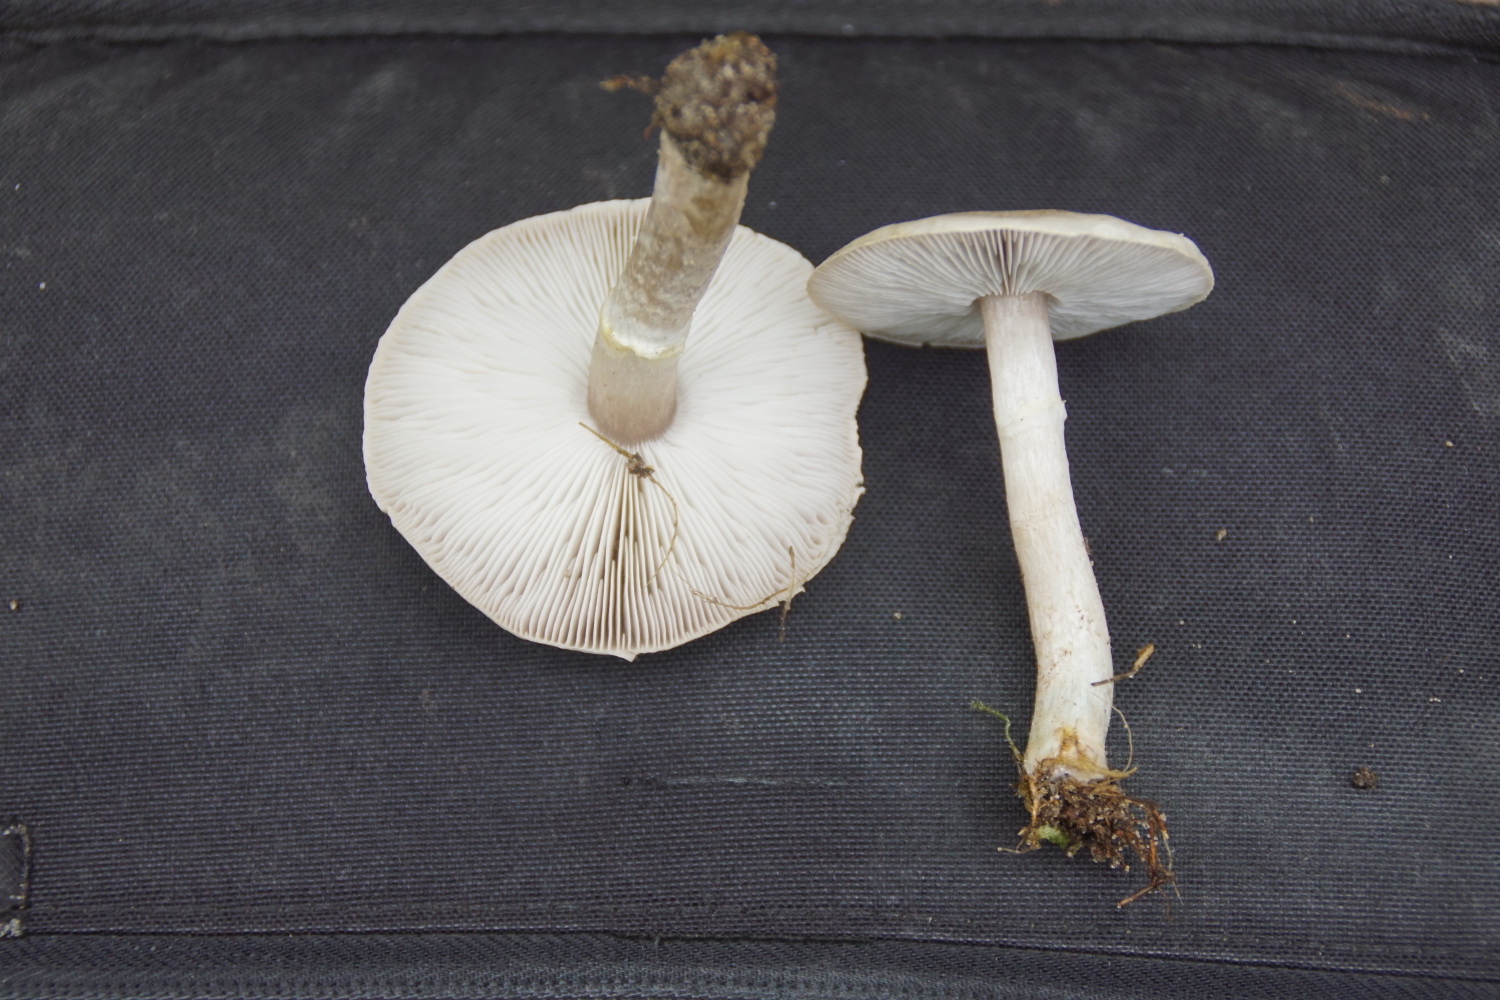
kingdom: Fungi
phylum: Basidiomycota
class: Agaricomycetes
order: Agaricales
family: Tricholomataceae
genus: Tricholoma
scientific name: Tricholoma cingulatum
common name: ring-ridderhat
